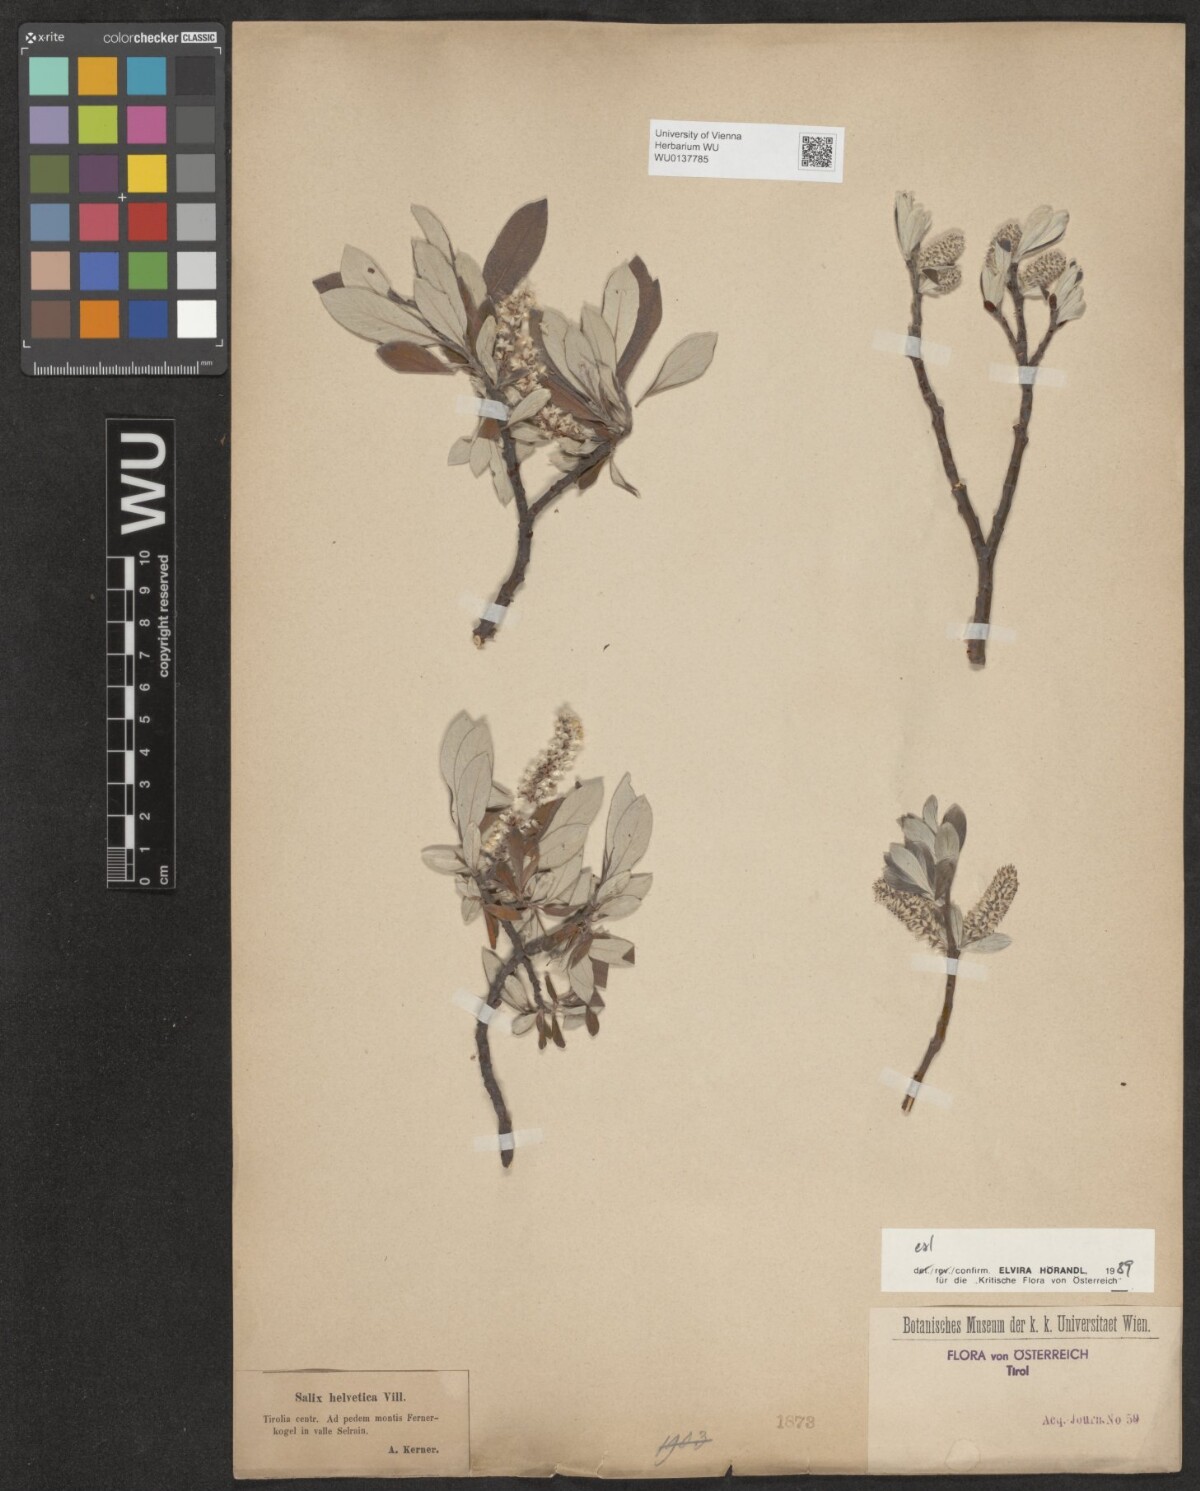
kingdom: Plantae
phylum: Tracheophyta
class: Magnoliopsida
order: Malpighiales
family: Salicaceae
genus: Salix
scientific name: Salix helvetica
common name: Swiss willow
